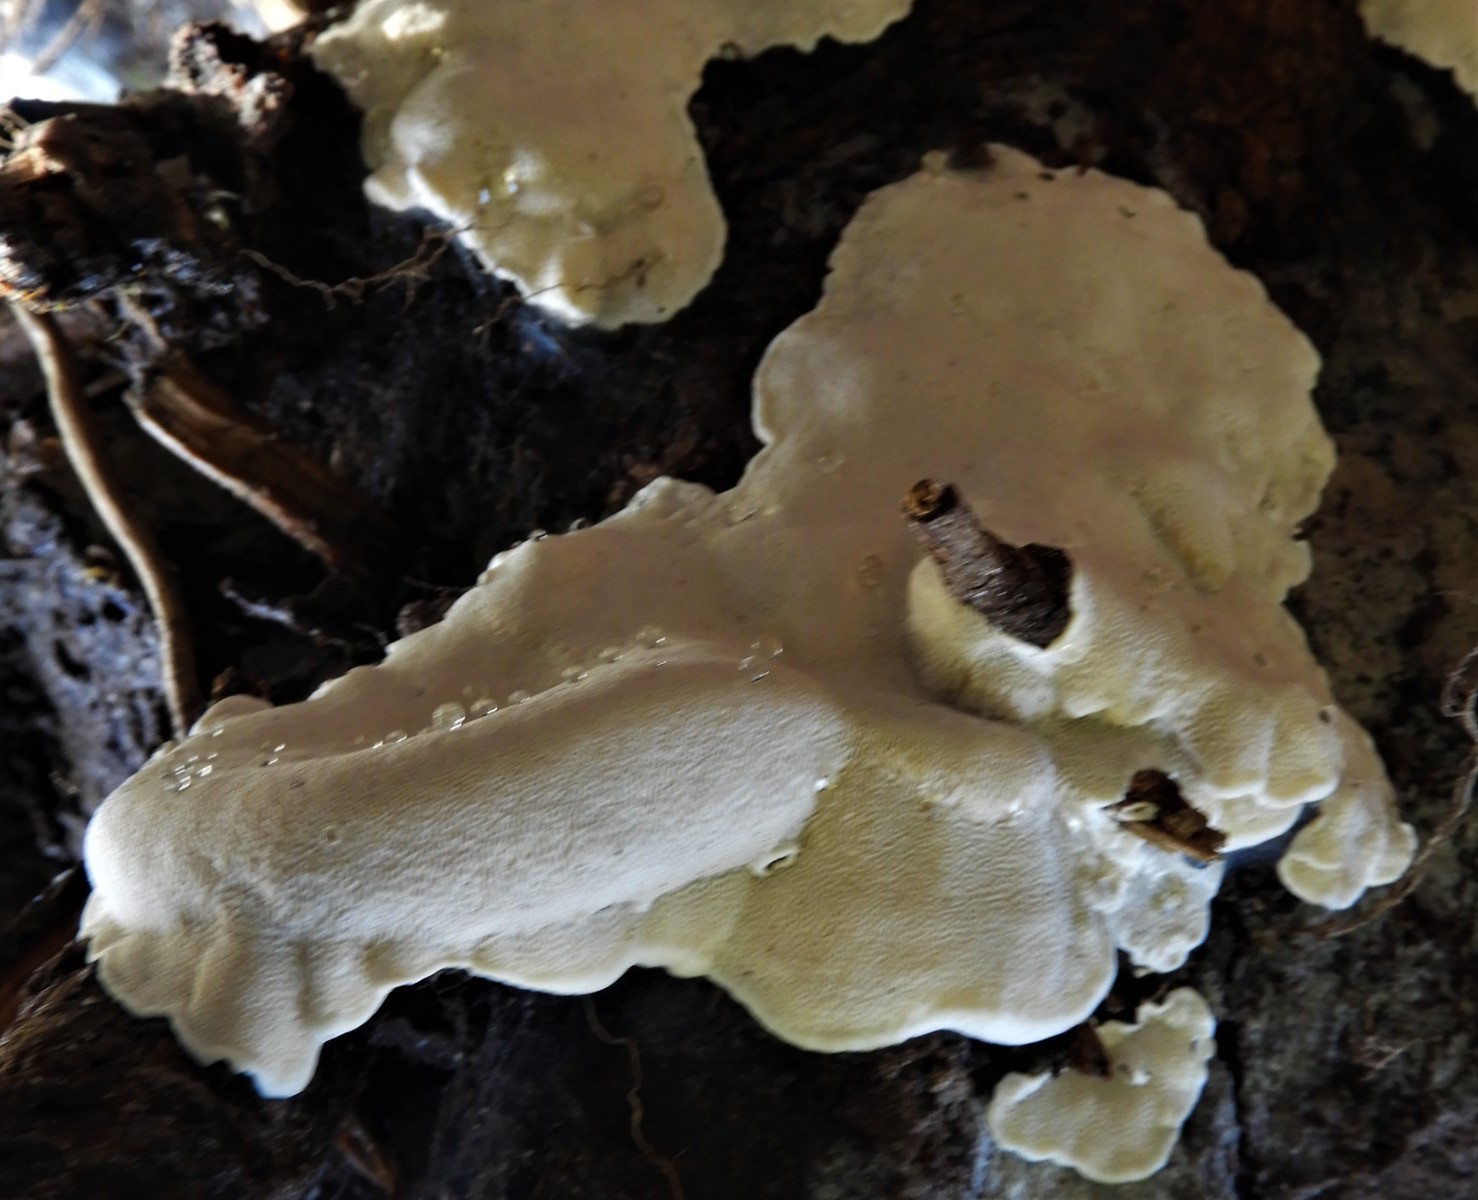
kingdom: Fungi
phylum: Basidiomycota
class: Agaricomycetes
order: Polyporales
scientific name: Polyporales
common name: poresvampordenen
